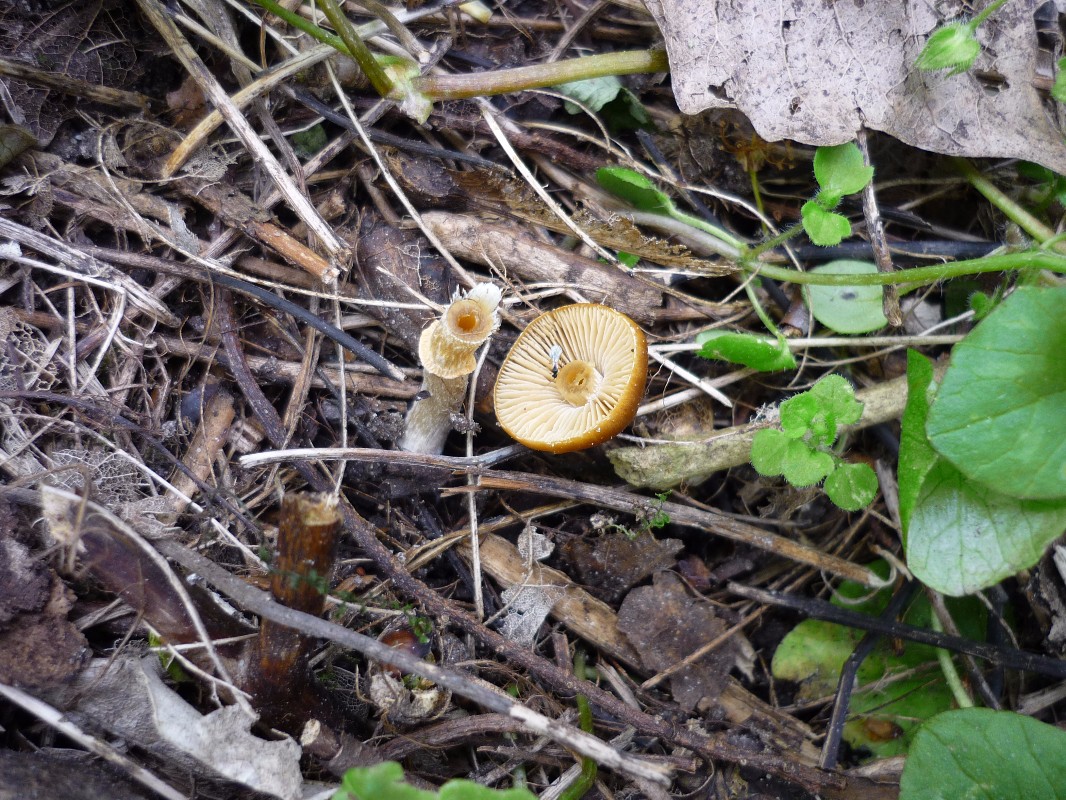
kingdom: Fungi
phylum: Basidiomycota
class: Agaricomycetes
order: Agaricales
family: Bolbitiaceae
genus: Conocybe
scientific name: Conocybe aporos
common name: tidlig dansehat
